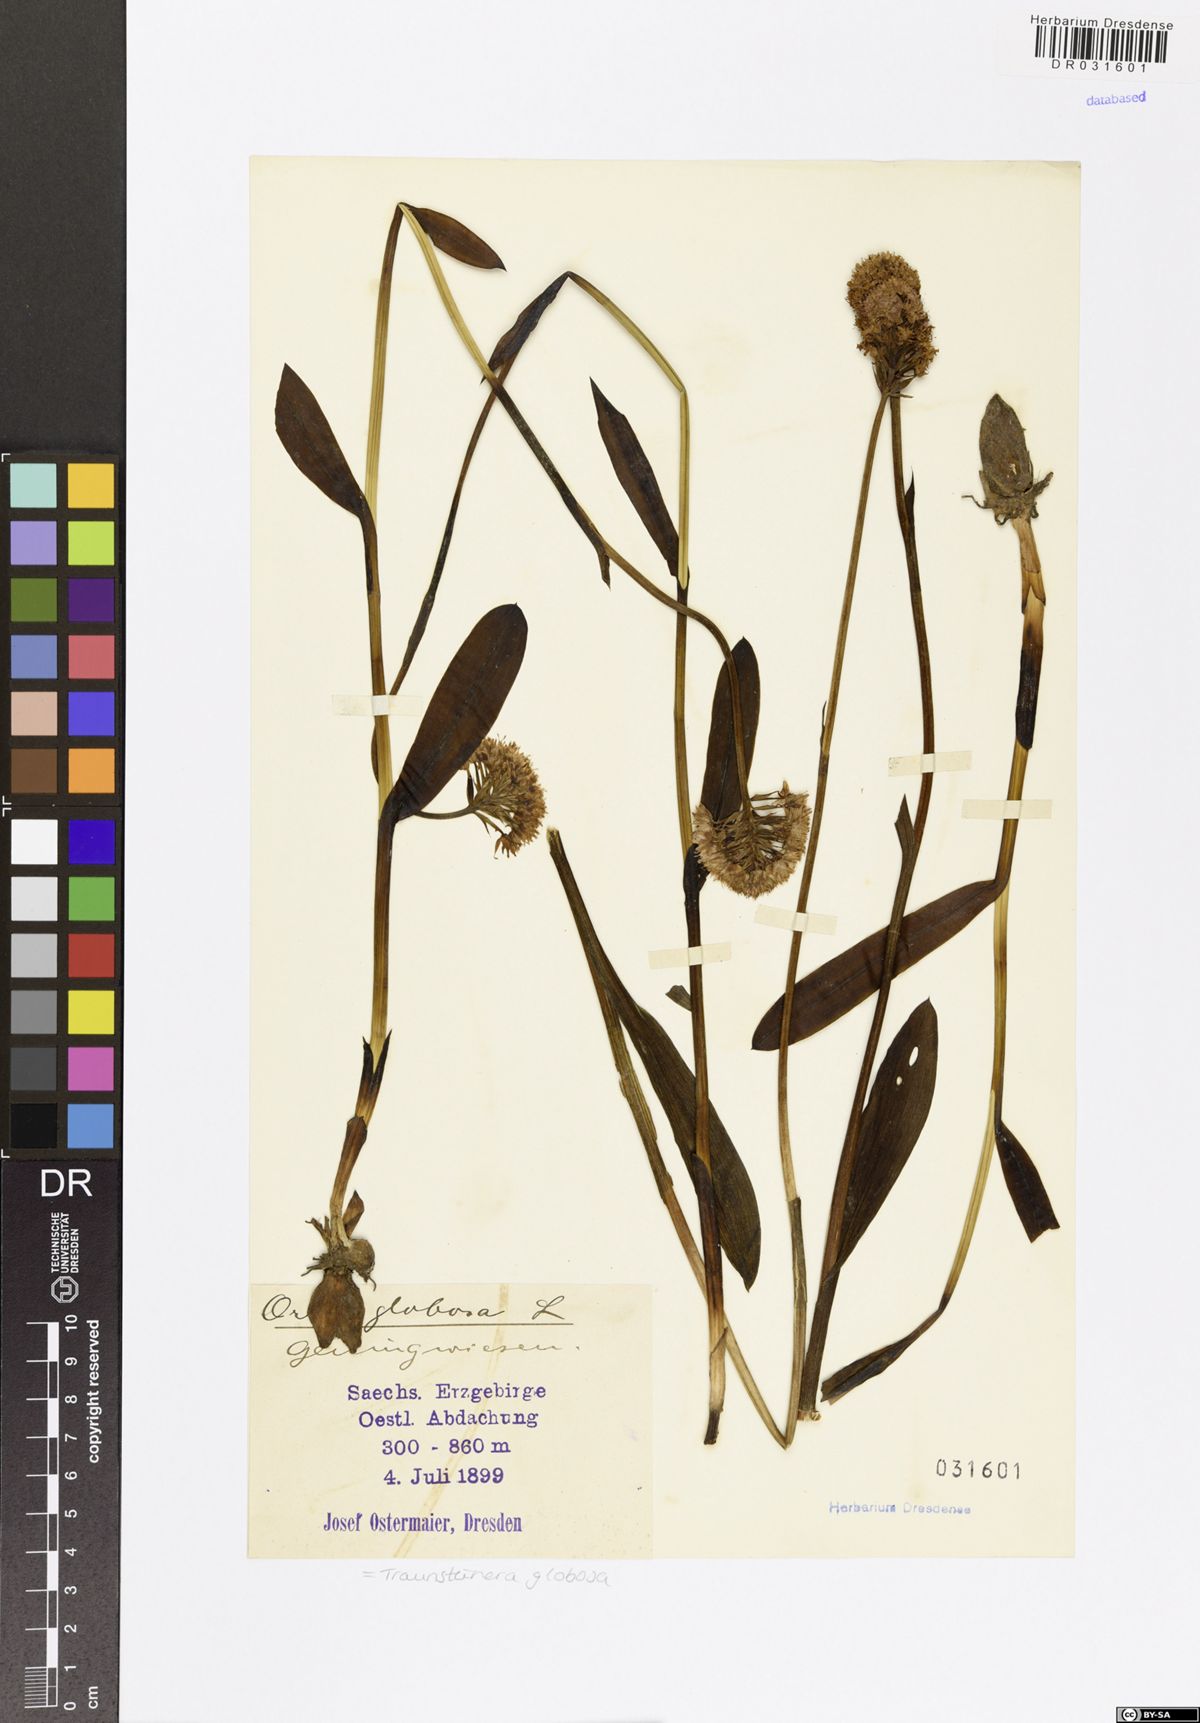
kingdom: Plantae
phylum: Tracheophyta
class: Liliopsida
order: Asparagales
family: Orchidaceae
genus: Traunsteinera
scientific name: Traunsteinera globosa
